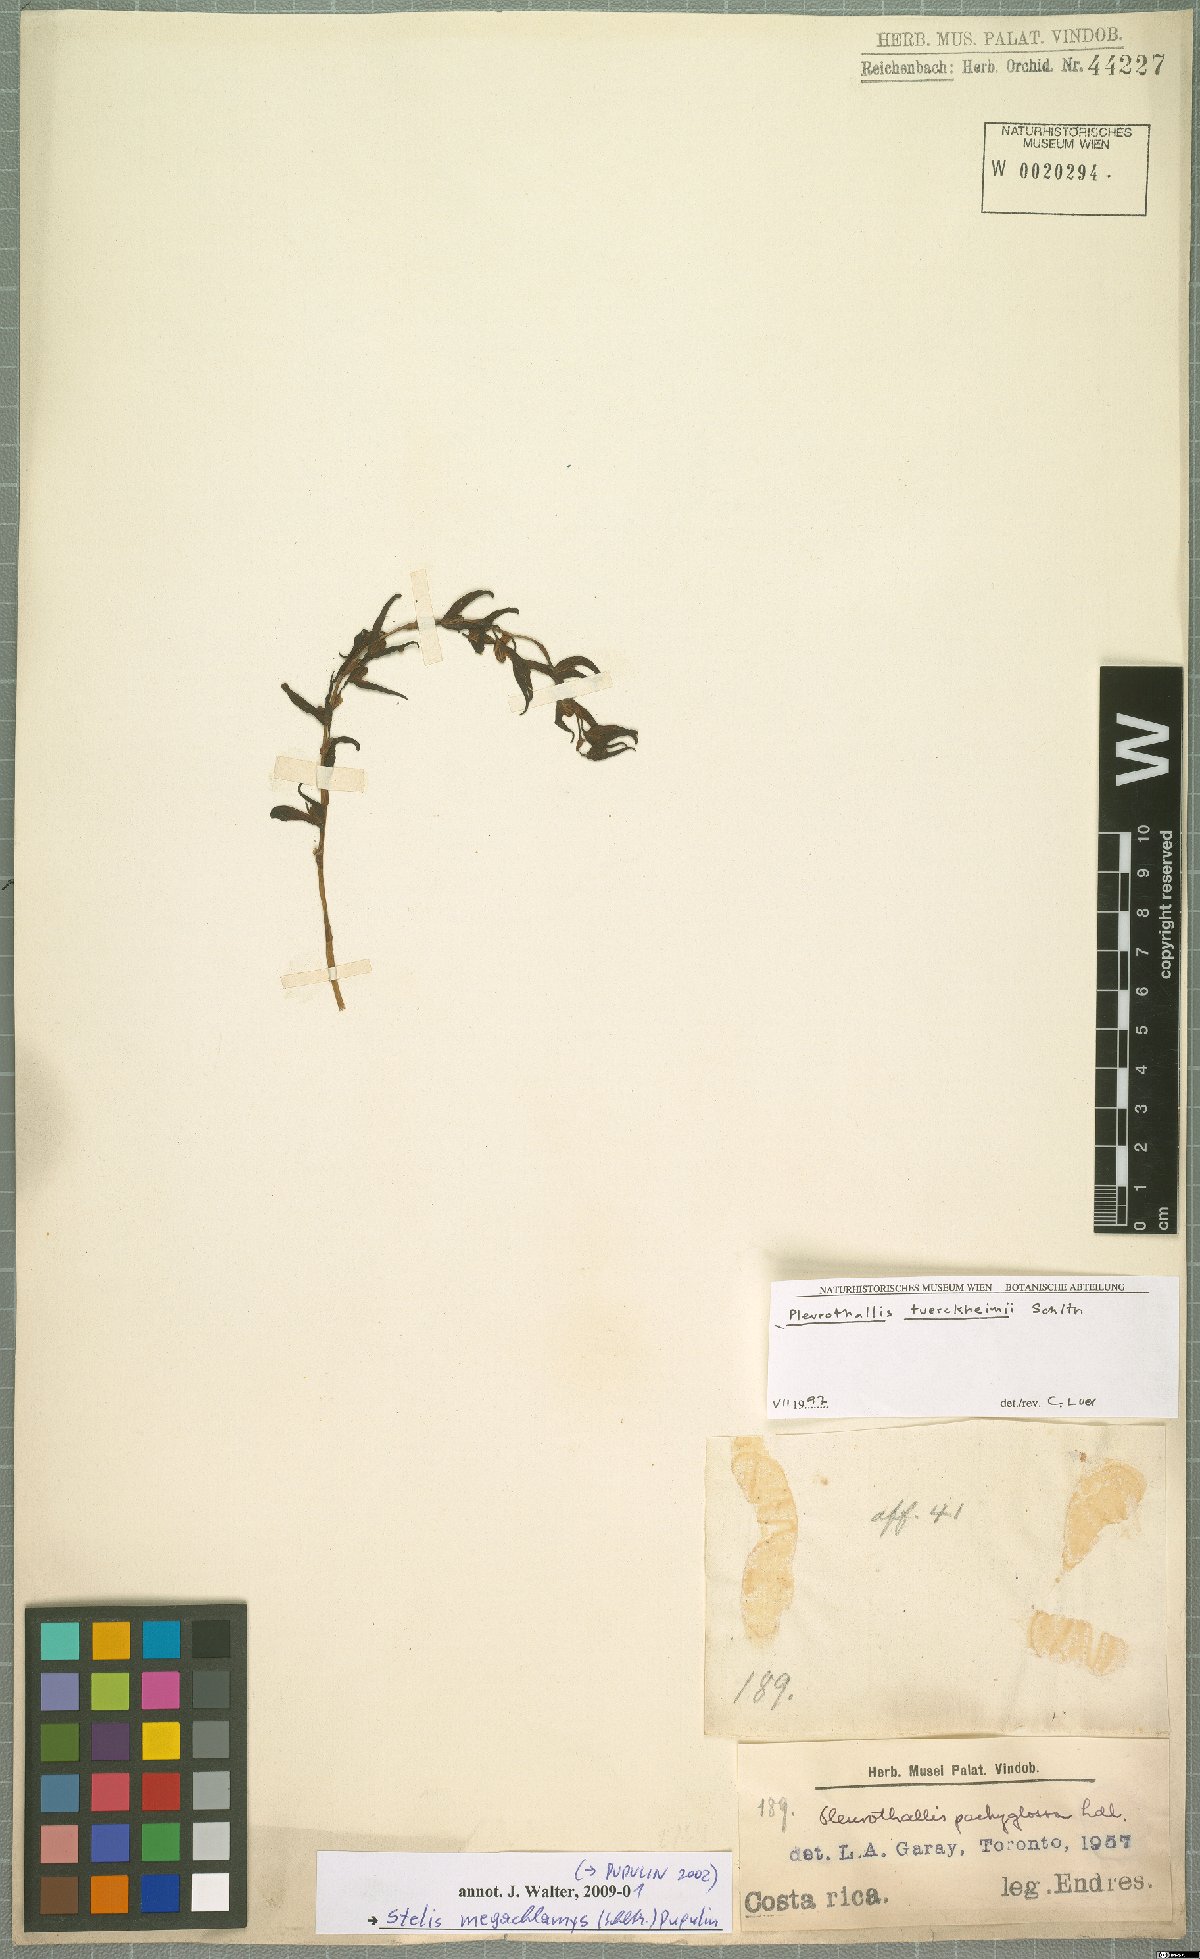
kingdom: Plantae
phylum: Tracheophyta
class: Liliopsida
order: Asparagales
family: Orchidaceae
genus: Stelis
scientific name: Stelis megachlamys
